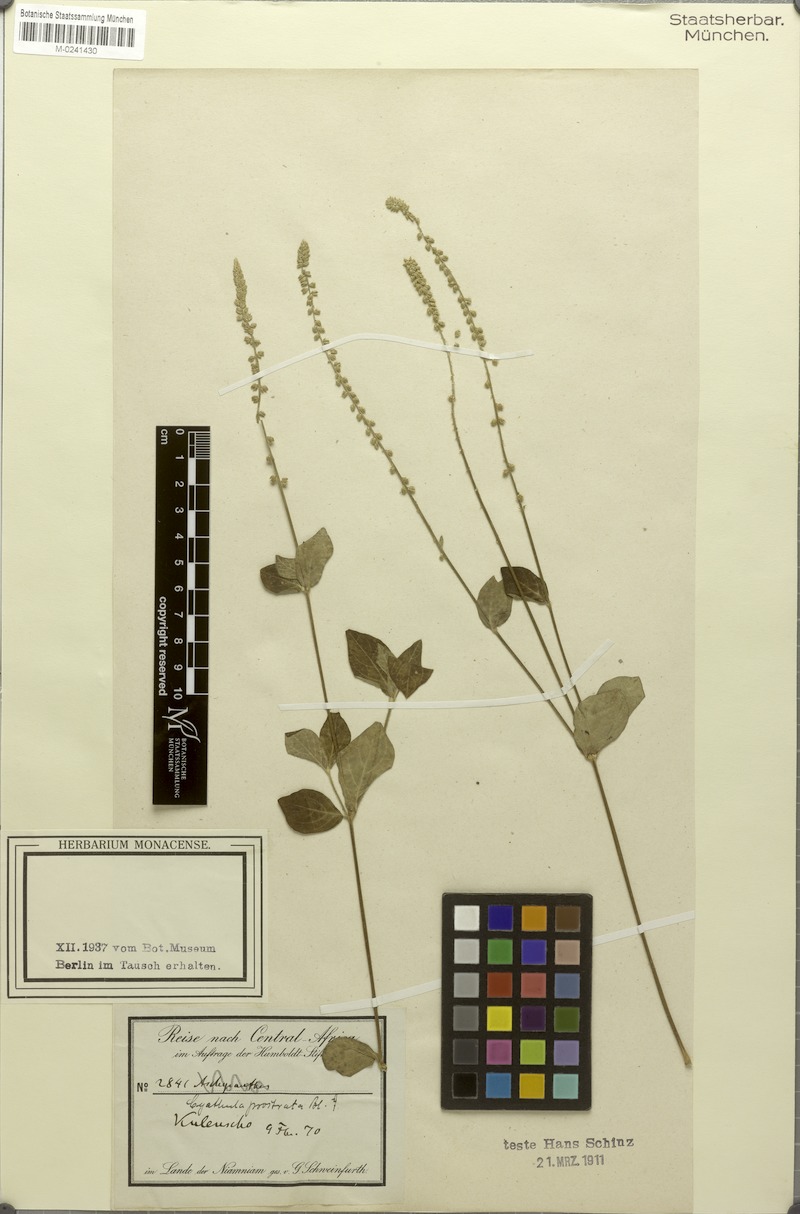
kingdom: Plantae
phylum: Tracheophyta
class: Magnoliopsida
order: Caryophyllales
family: Amaranthaceae
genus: Cyathula
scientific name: Cyathula prostrata
